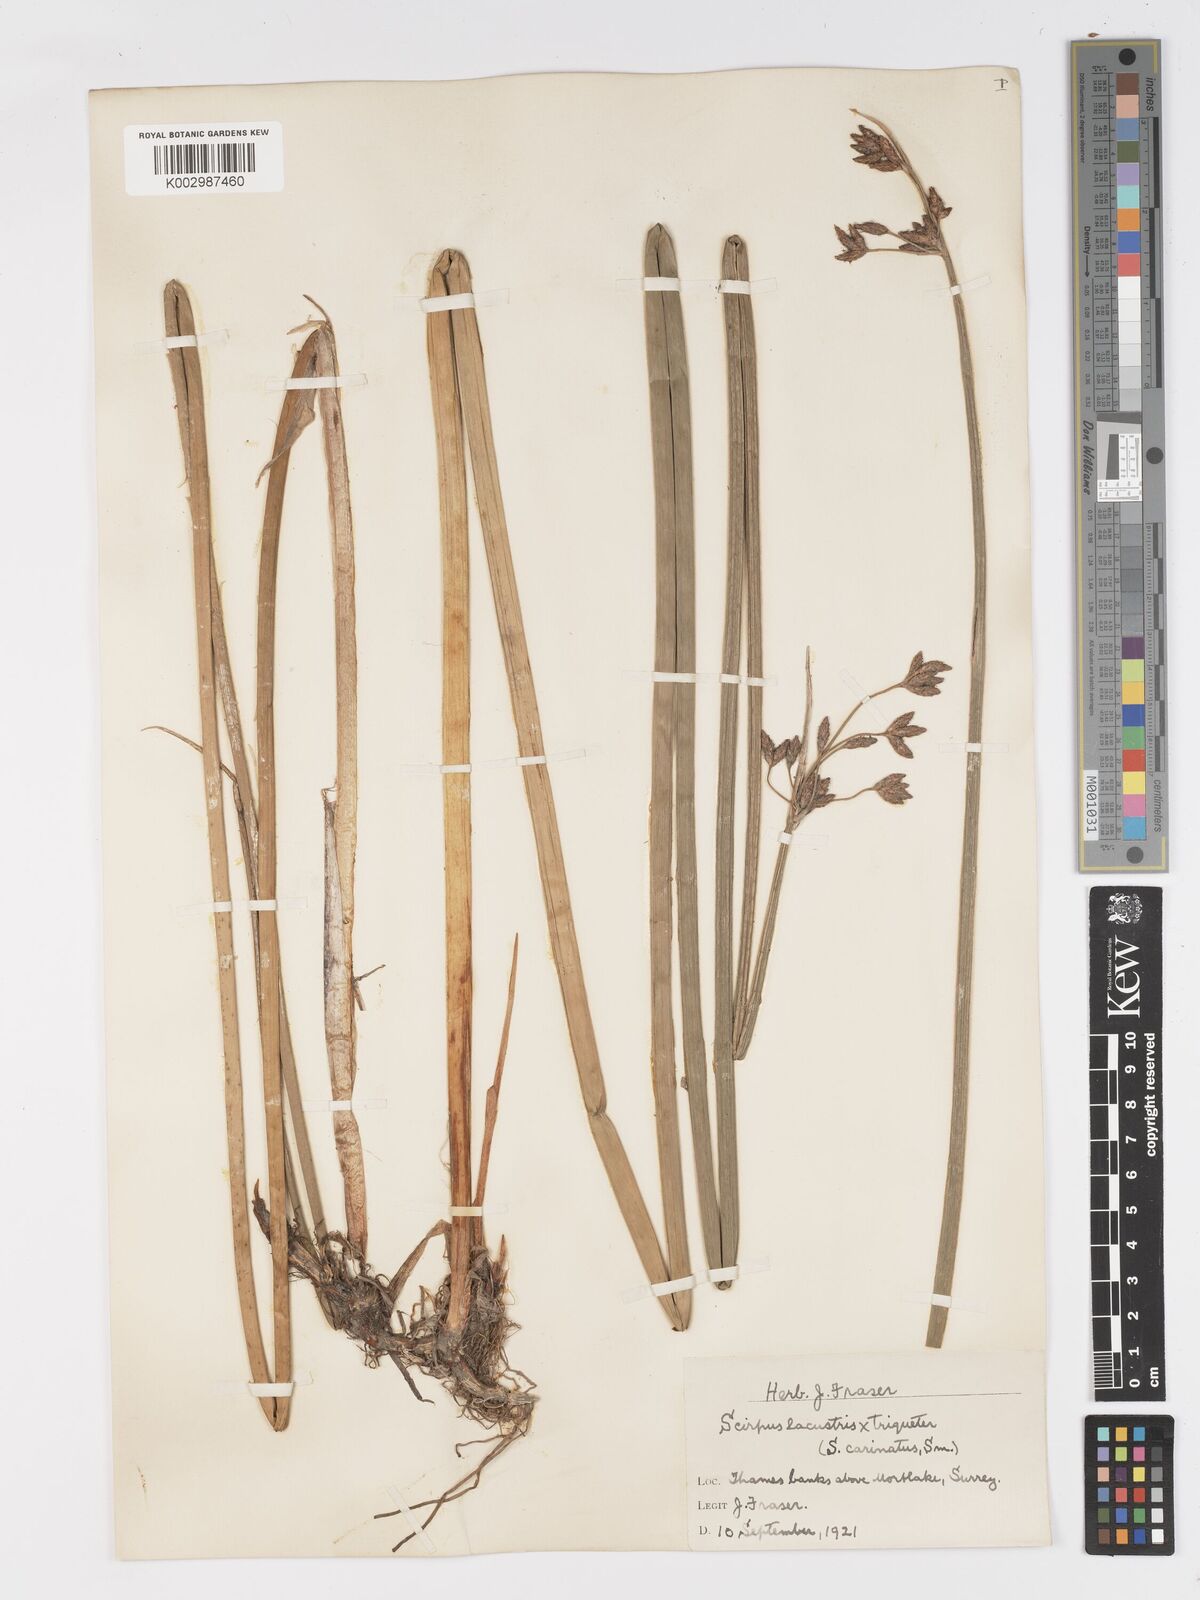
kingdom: Plantae
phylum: Tracheophyta
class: Liliopsida
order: Poales
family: Cyperaceae
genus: Schoenoplectus
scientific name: Schoenoplectus carinatus
